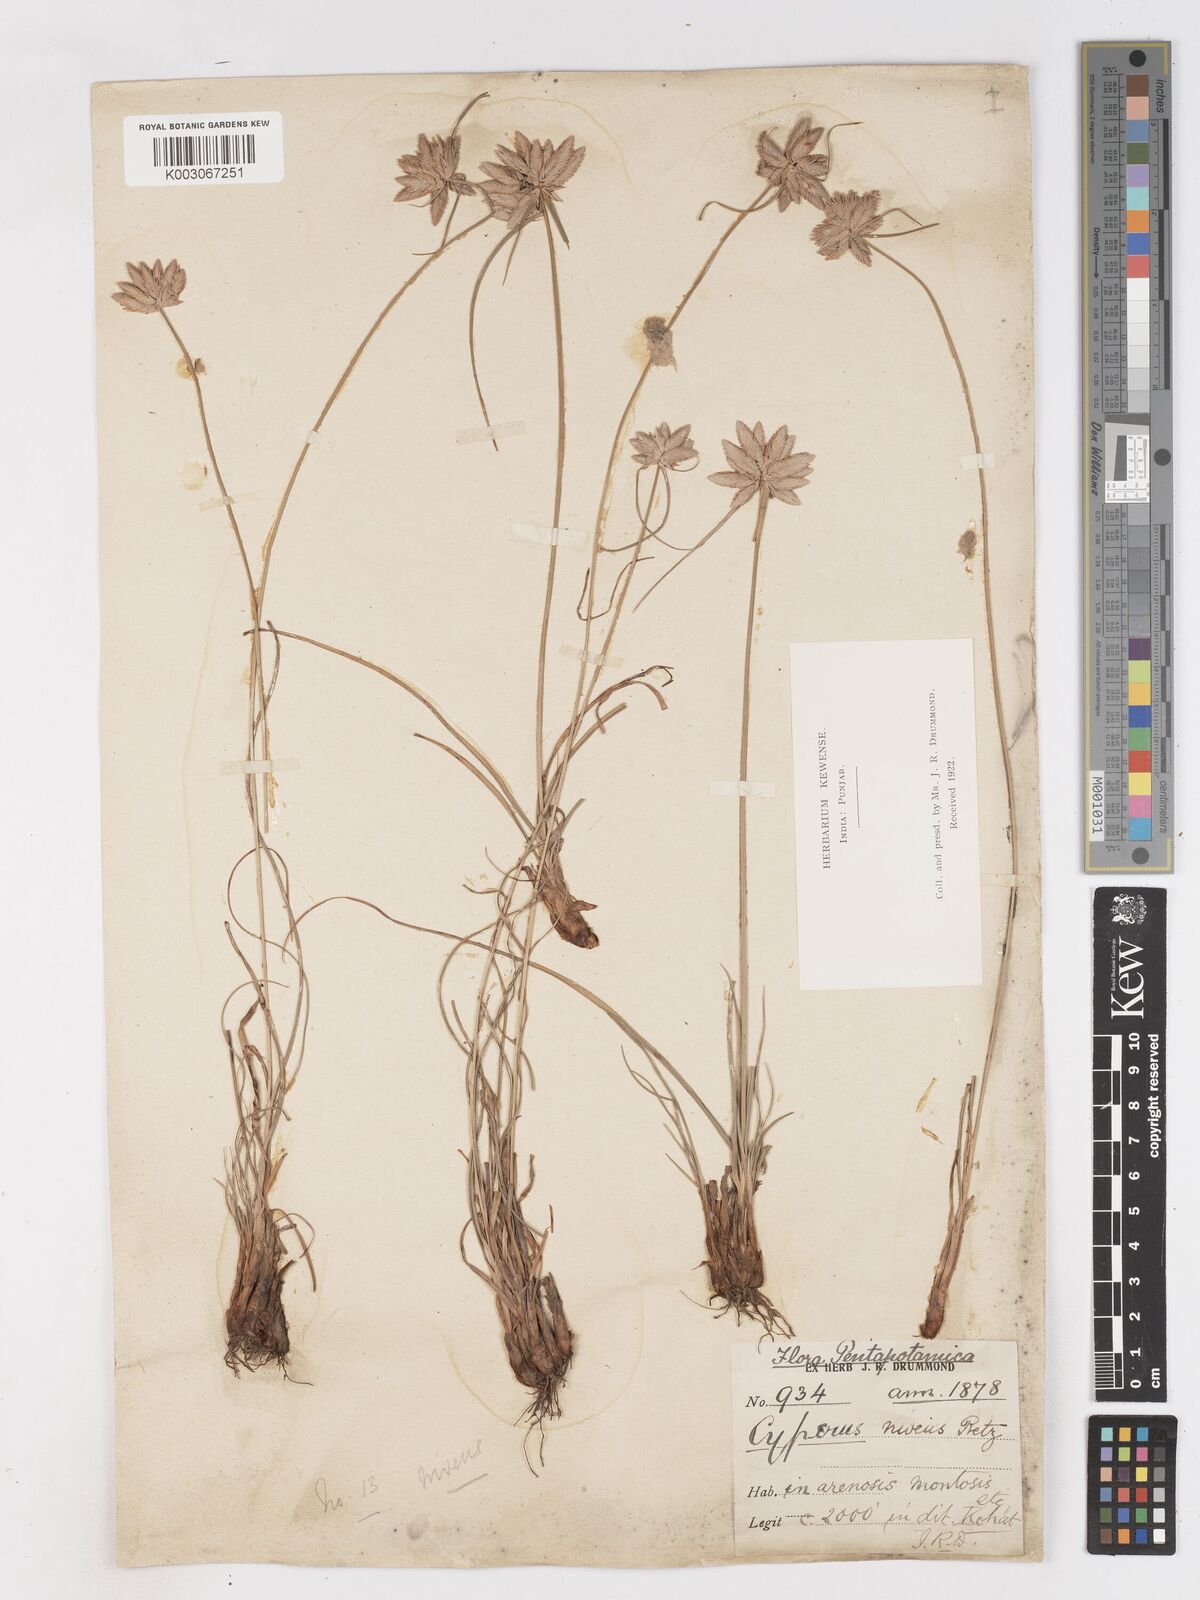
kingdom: Plantae
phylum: Tracheophyta
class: Liliopsida
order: Poales
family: Cyperaceae
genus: Cyperus
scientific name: Cyperus niveus
